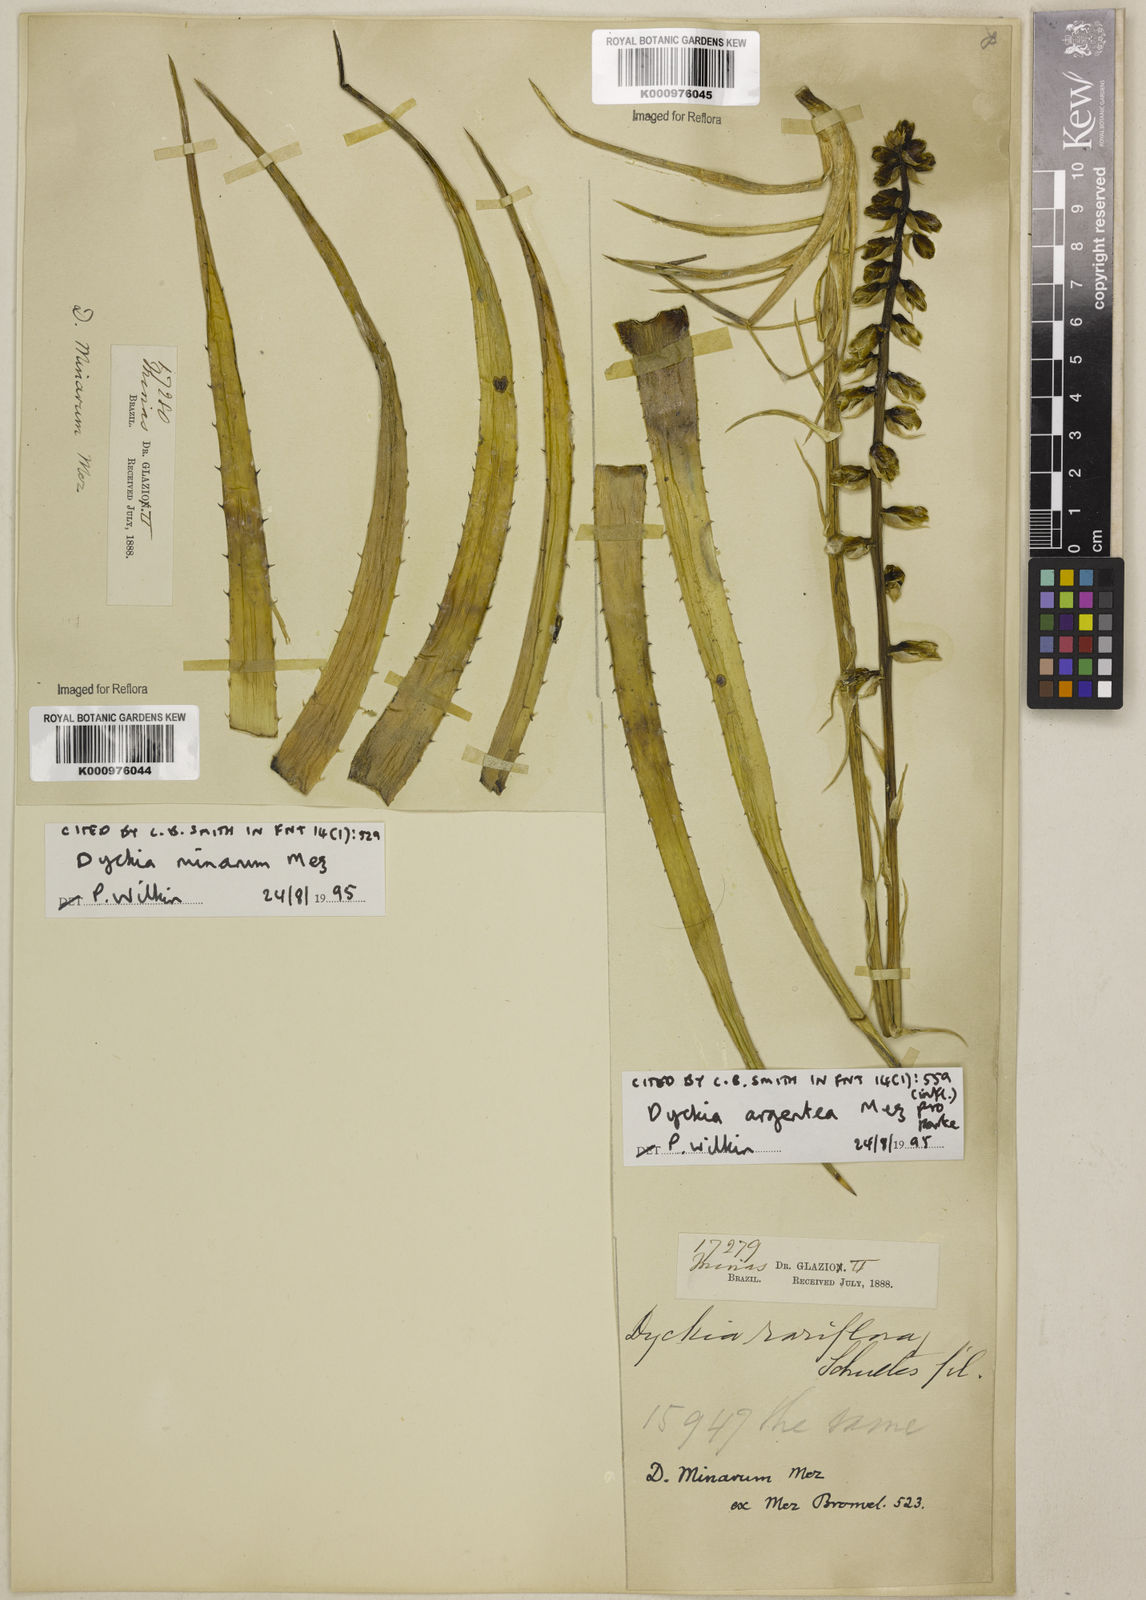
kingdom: Plantae
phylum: Tracheophyta
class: Liliopsida
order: Poales
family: Bromeliaceae
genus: Dyckia
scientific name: Dyckia mezii
